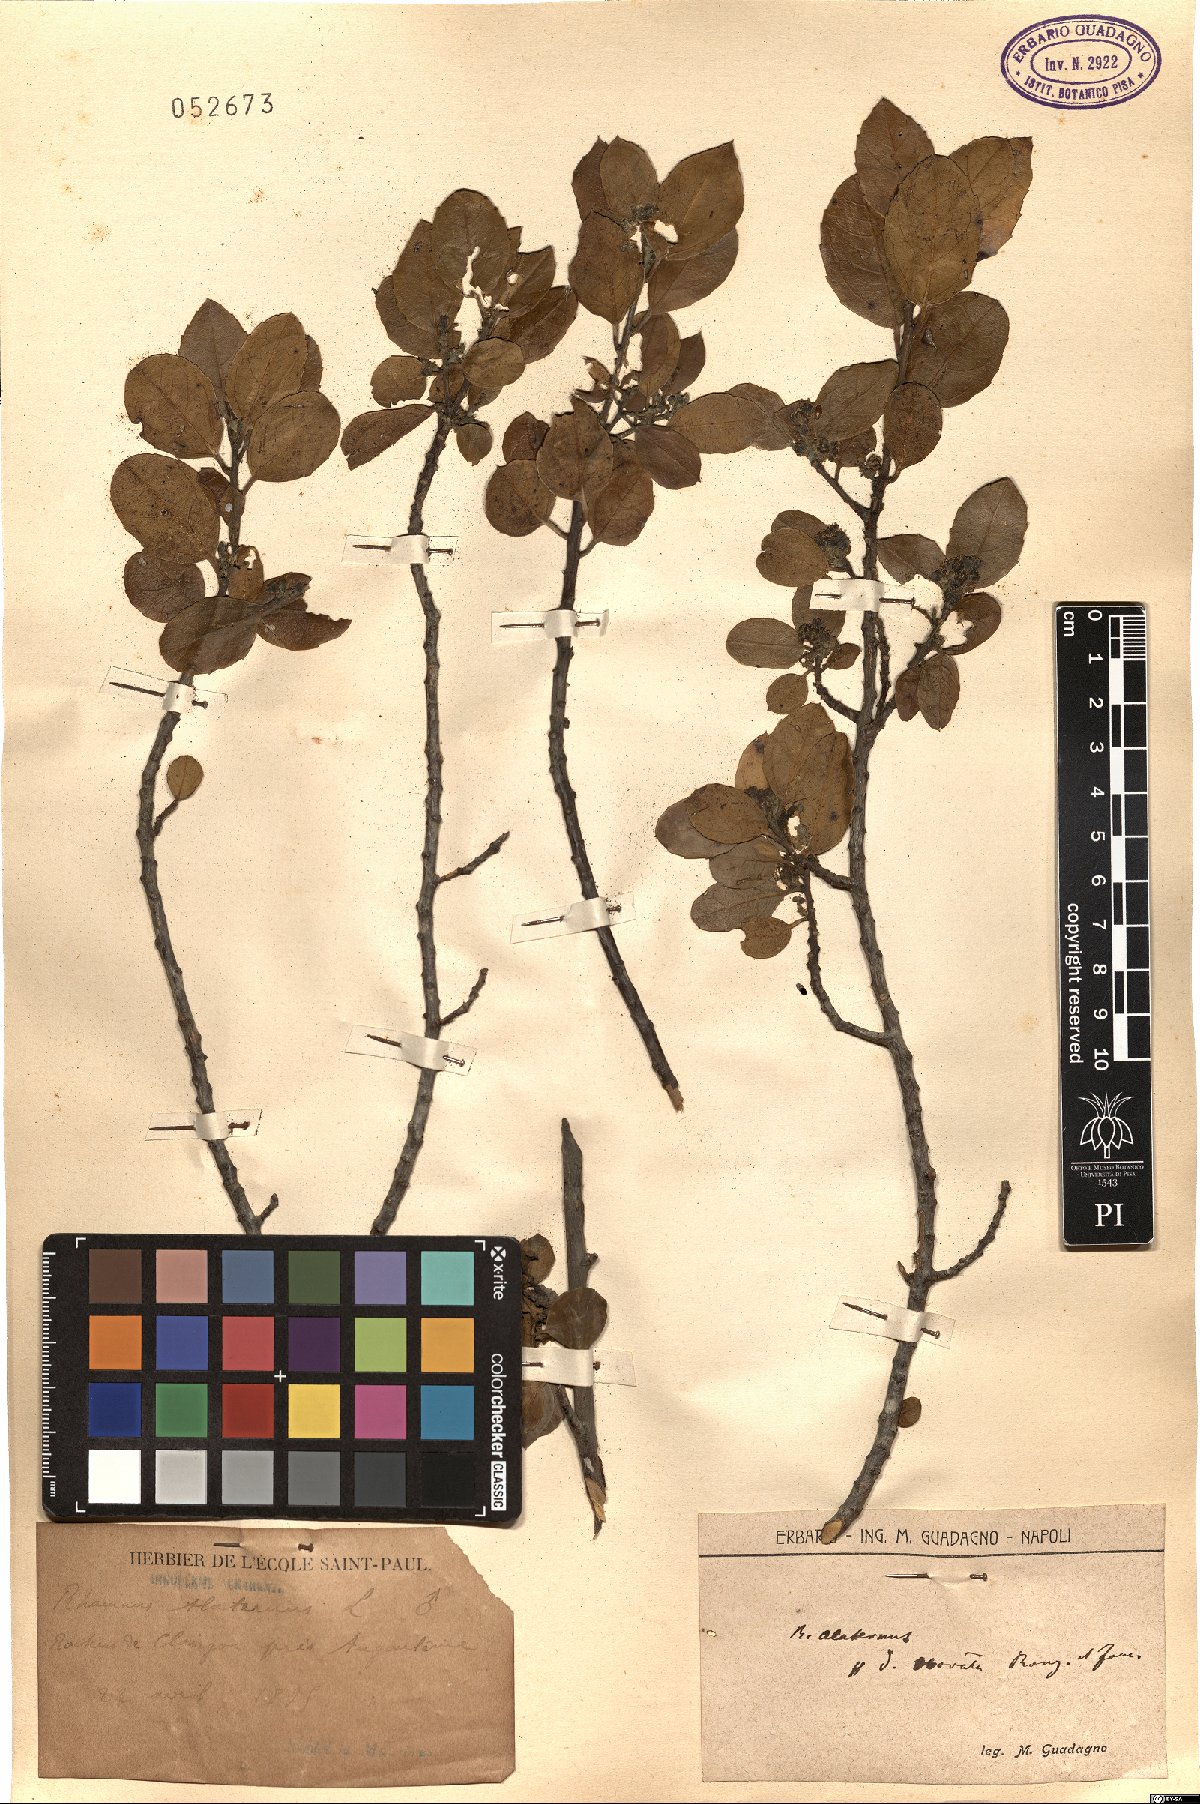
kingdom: Plantae
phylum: Tracheophyta
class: Magnoliopsida
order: Rosales
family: Rhamnaceae
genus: Rhamnus
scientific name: Rhamnus alaternus
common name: Mediterranean buckthorn
